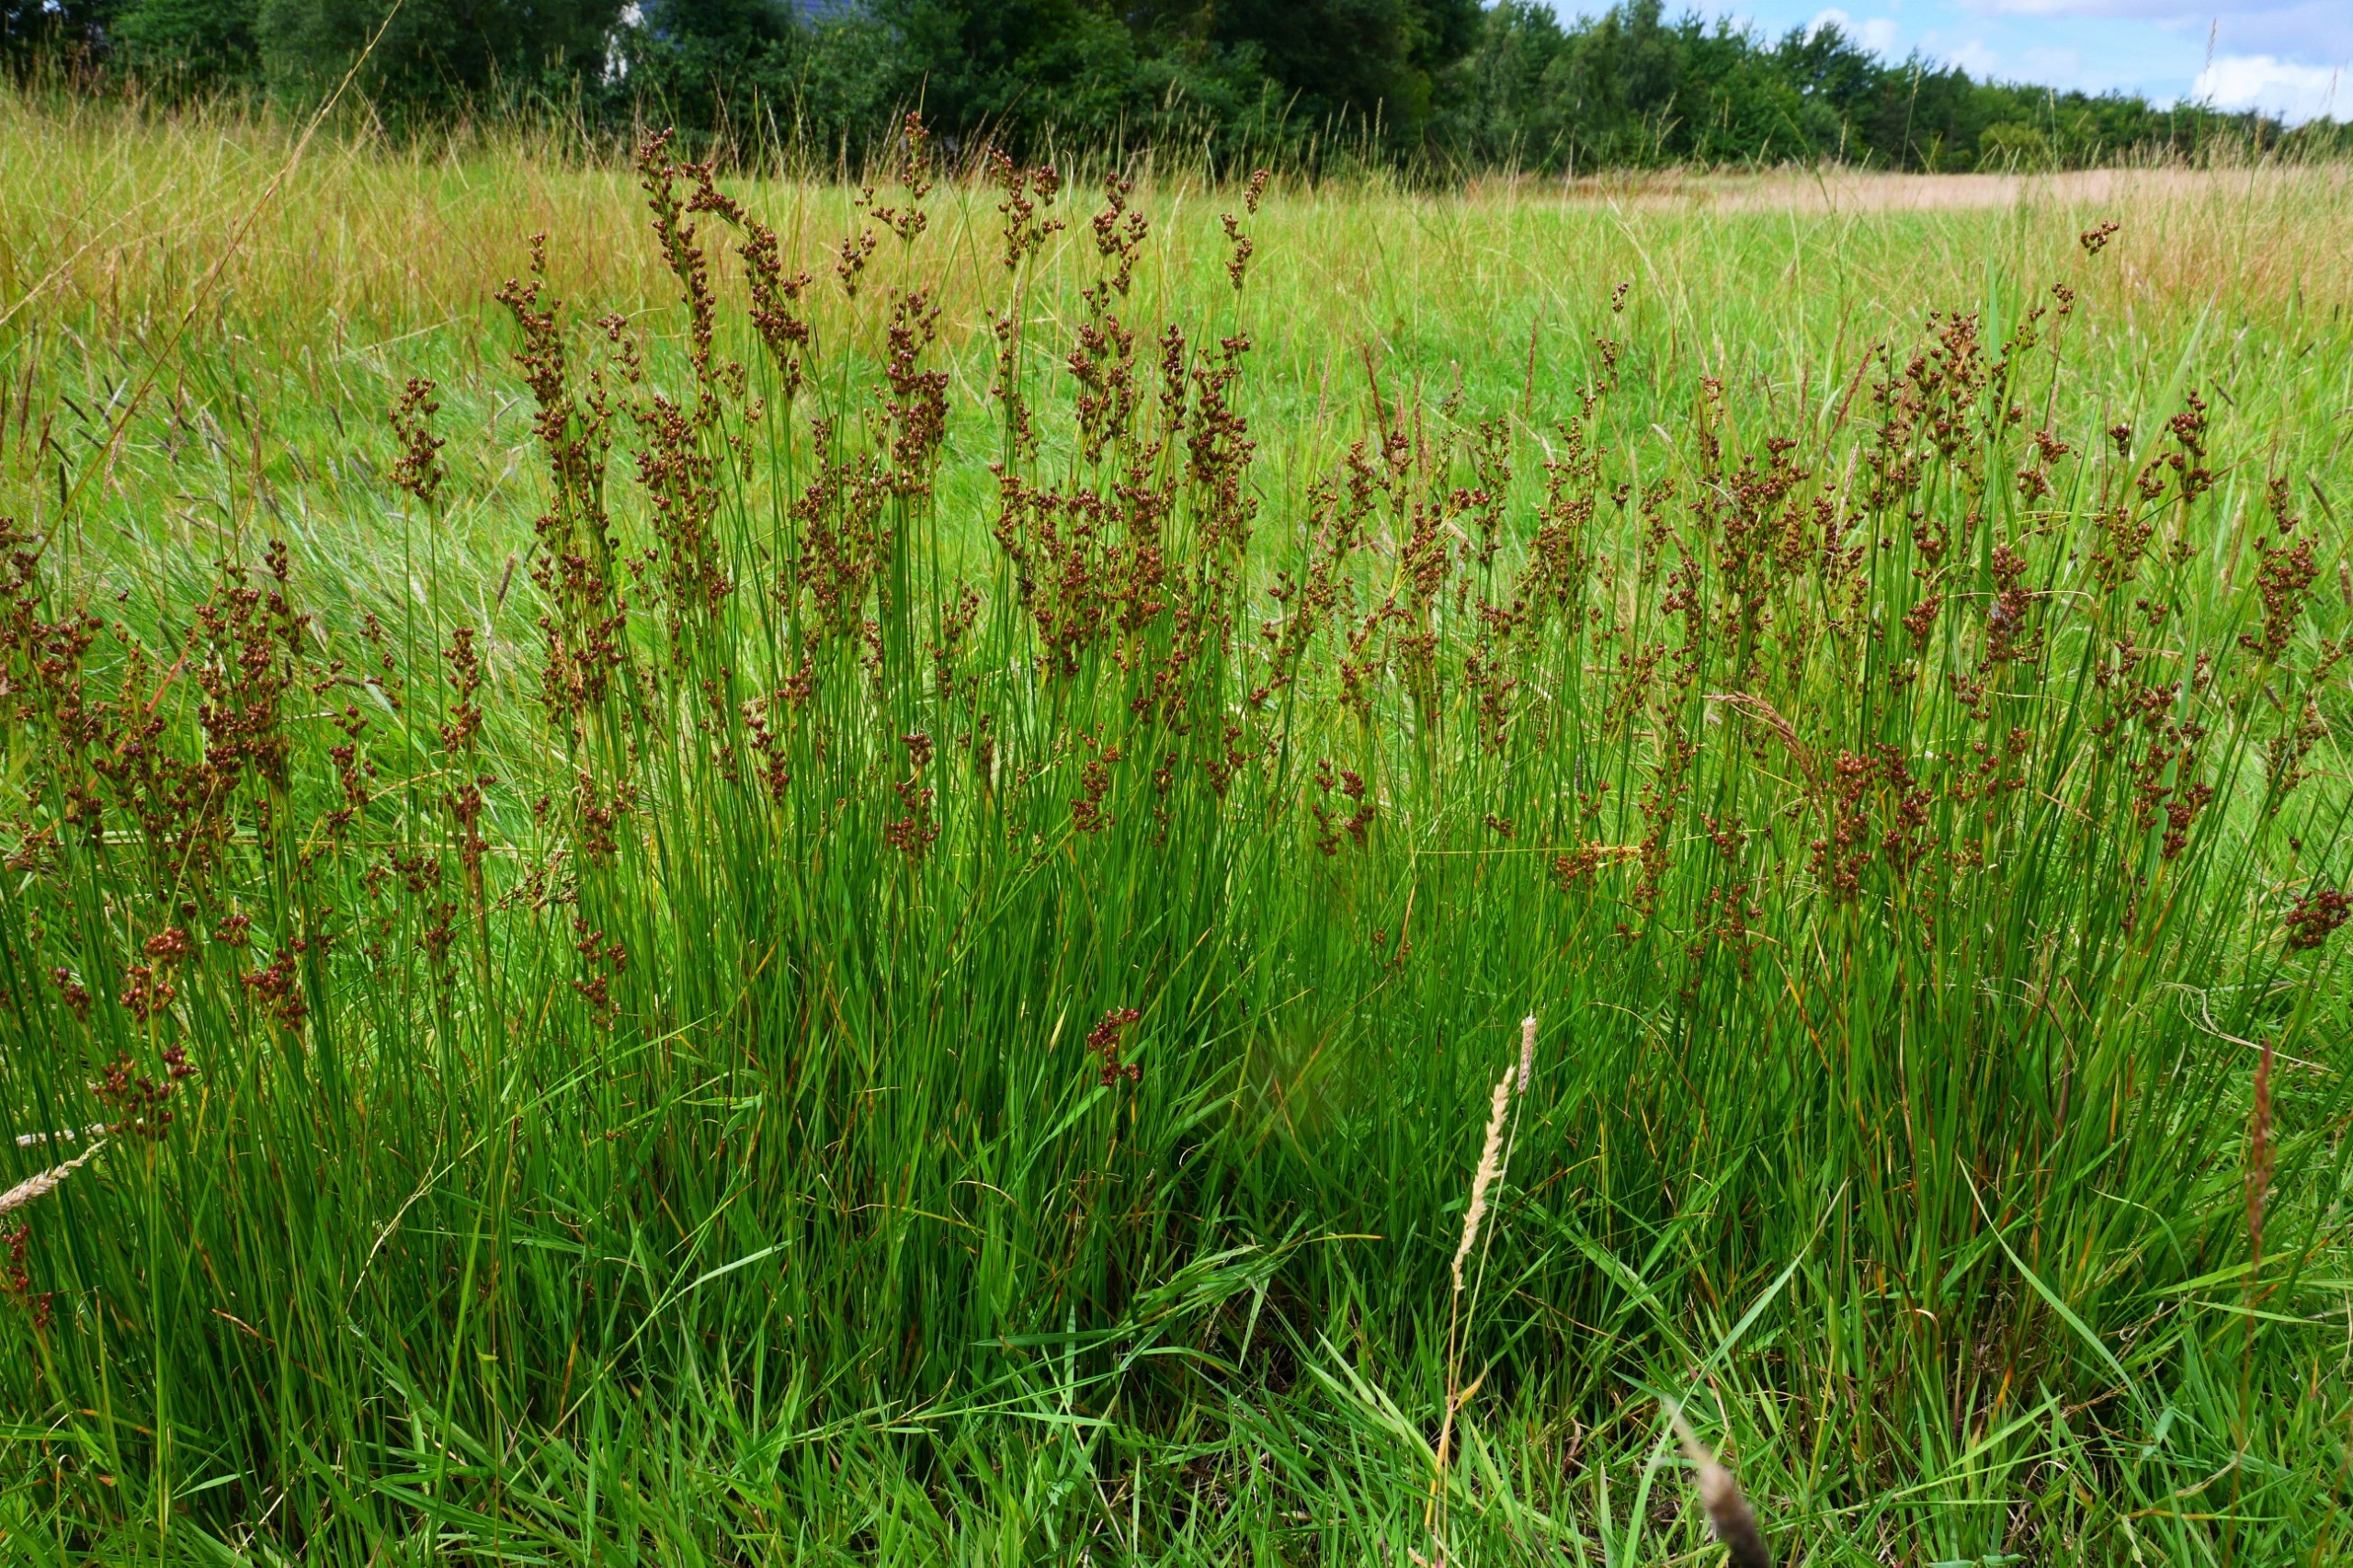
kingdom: Plantae
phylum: Tracheophyta
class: Liliopsida
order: Poales
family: Juncaceae
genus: Juncus
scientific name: Juncus compressus
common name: Fladstrået siv
